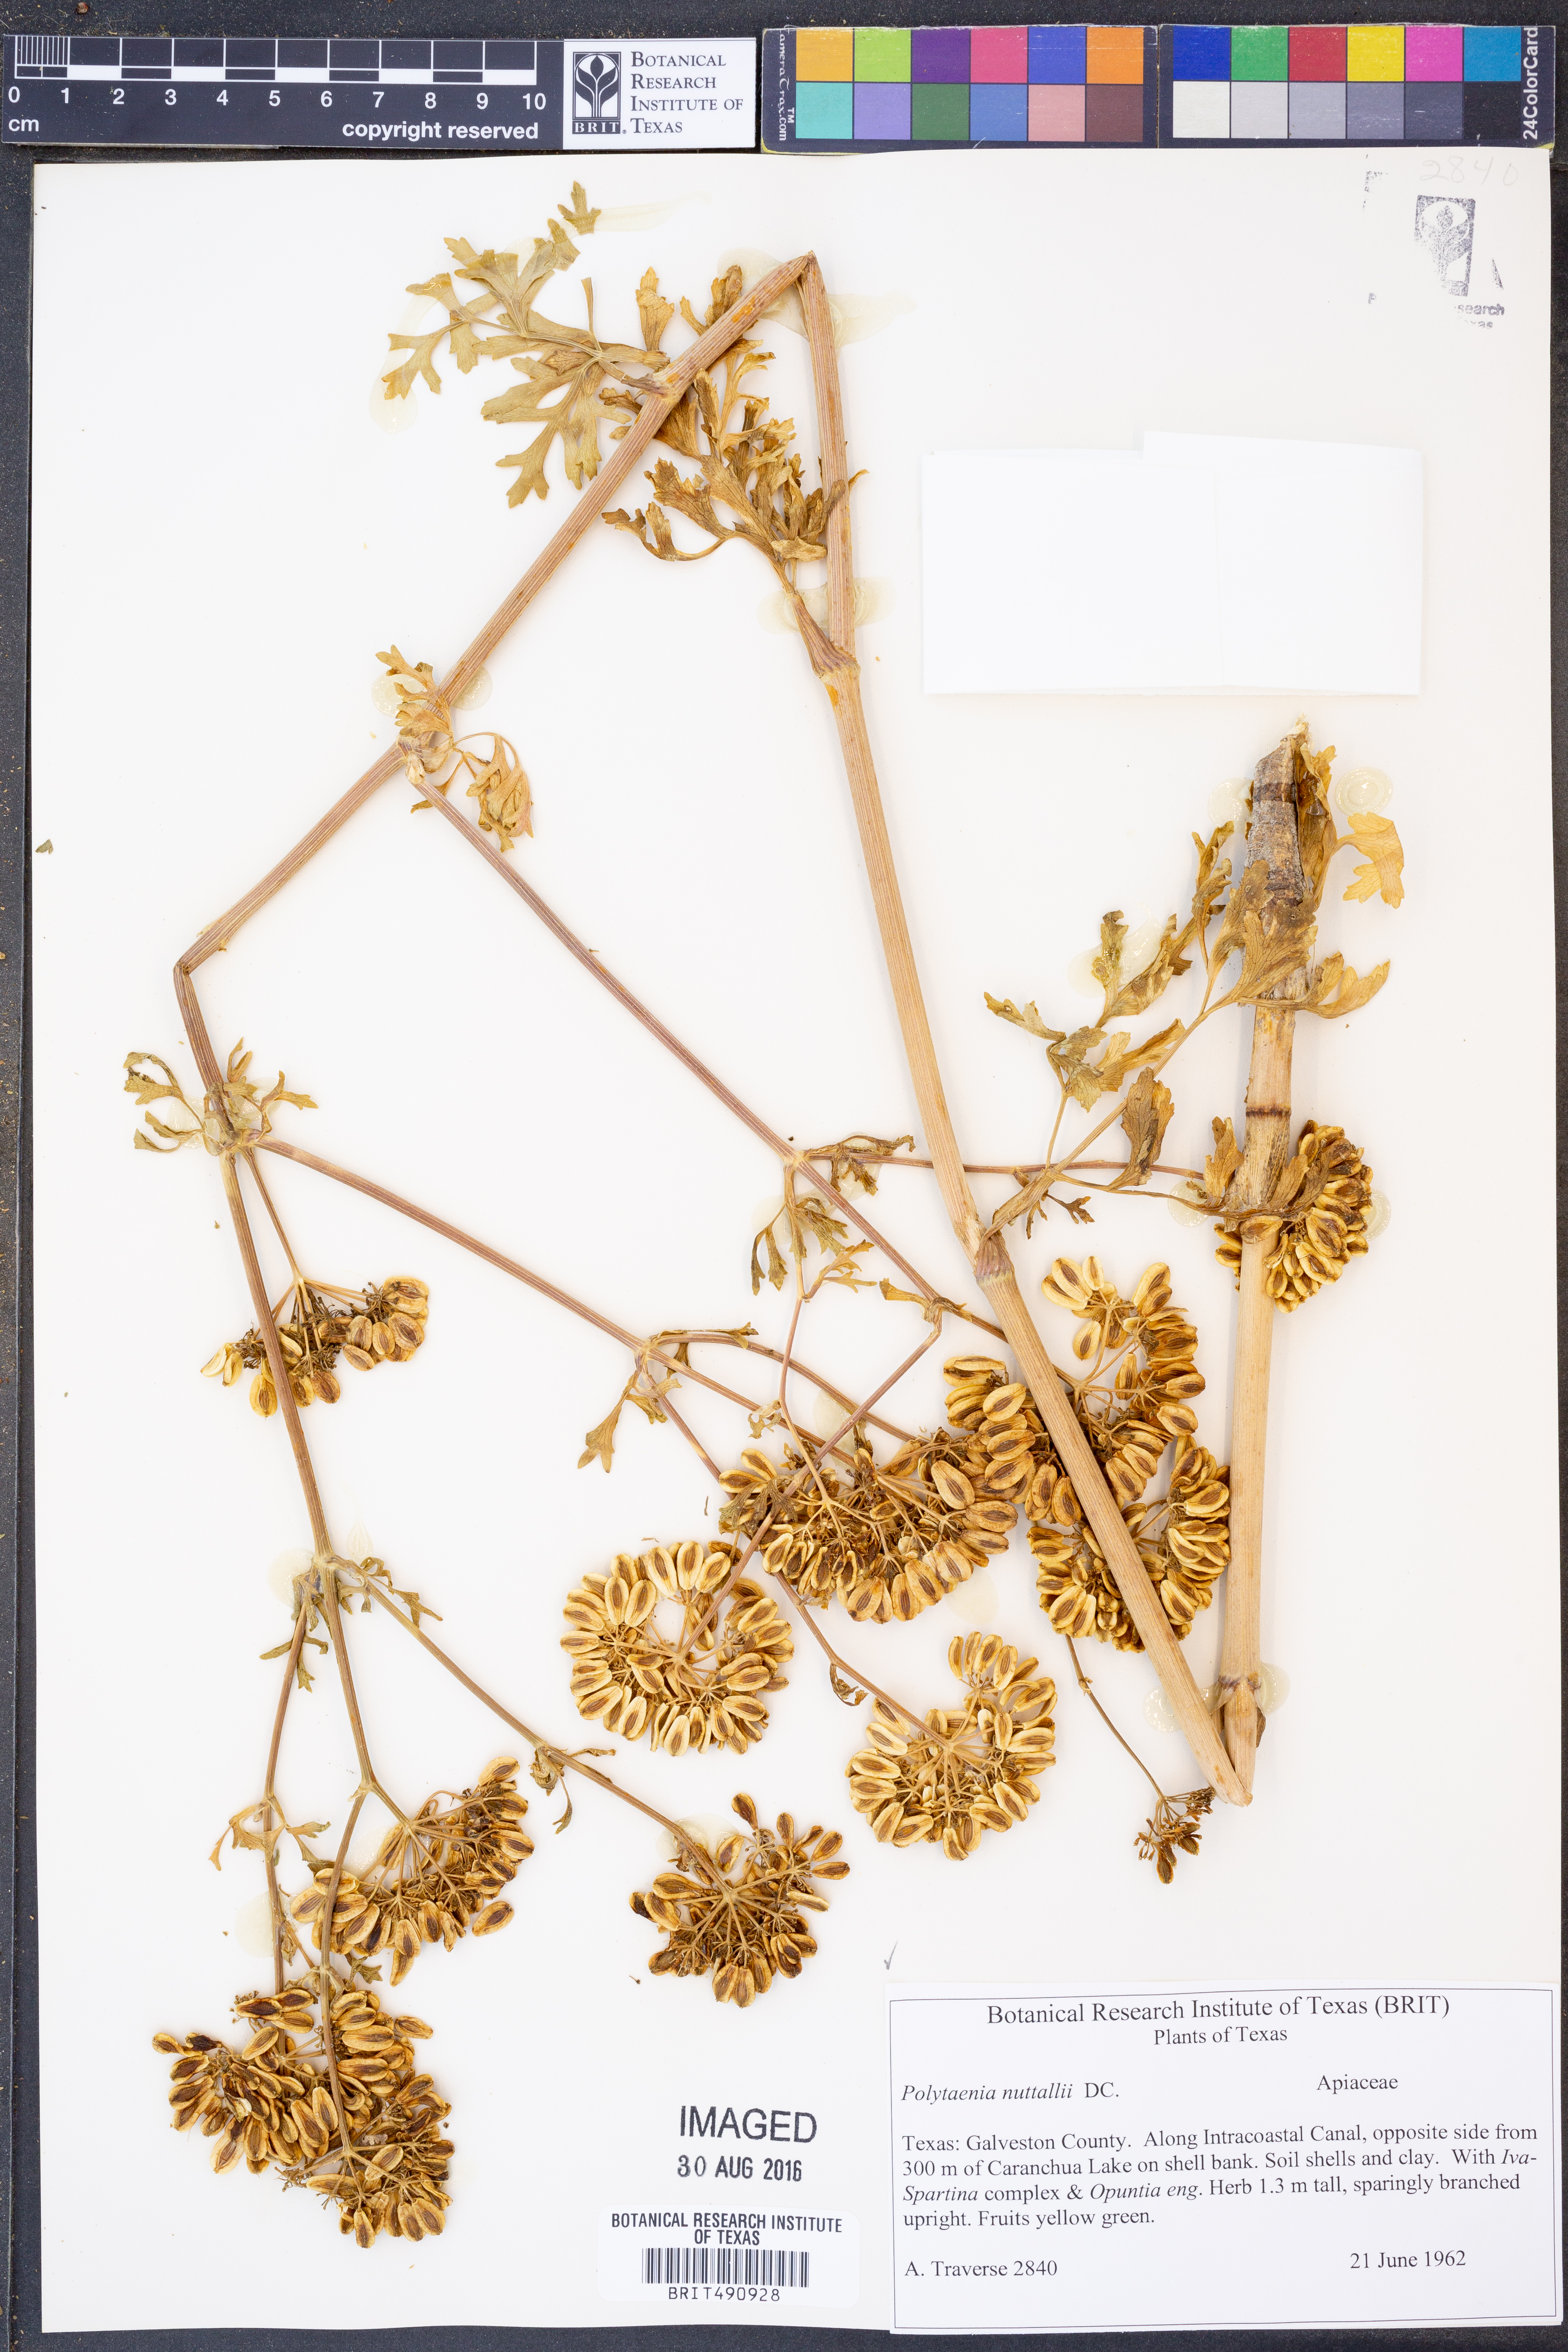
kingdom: Plantae
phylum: Tracheophyta
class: Magnoliopsida
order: Apiales
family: Apiaceae
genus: Polytaenia
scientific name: Polytaenia nuttallii
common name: Prairie-parsley
